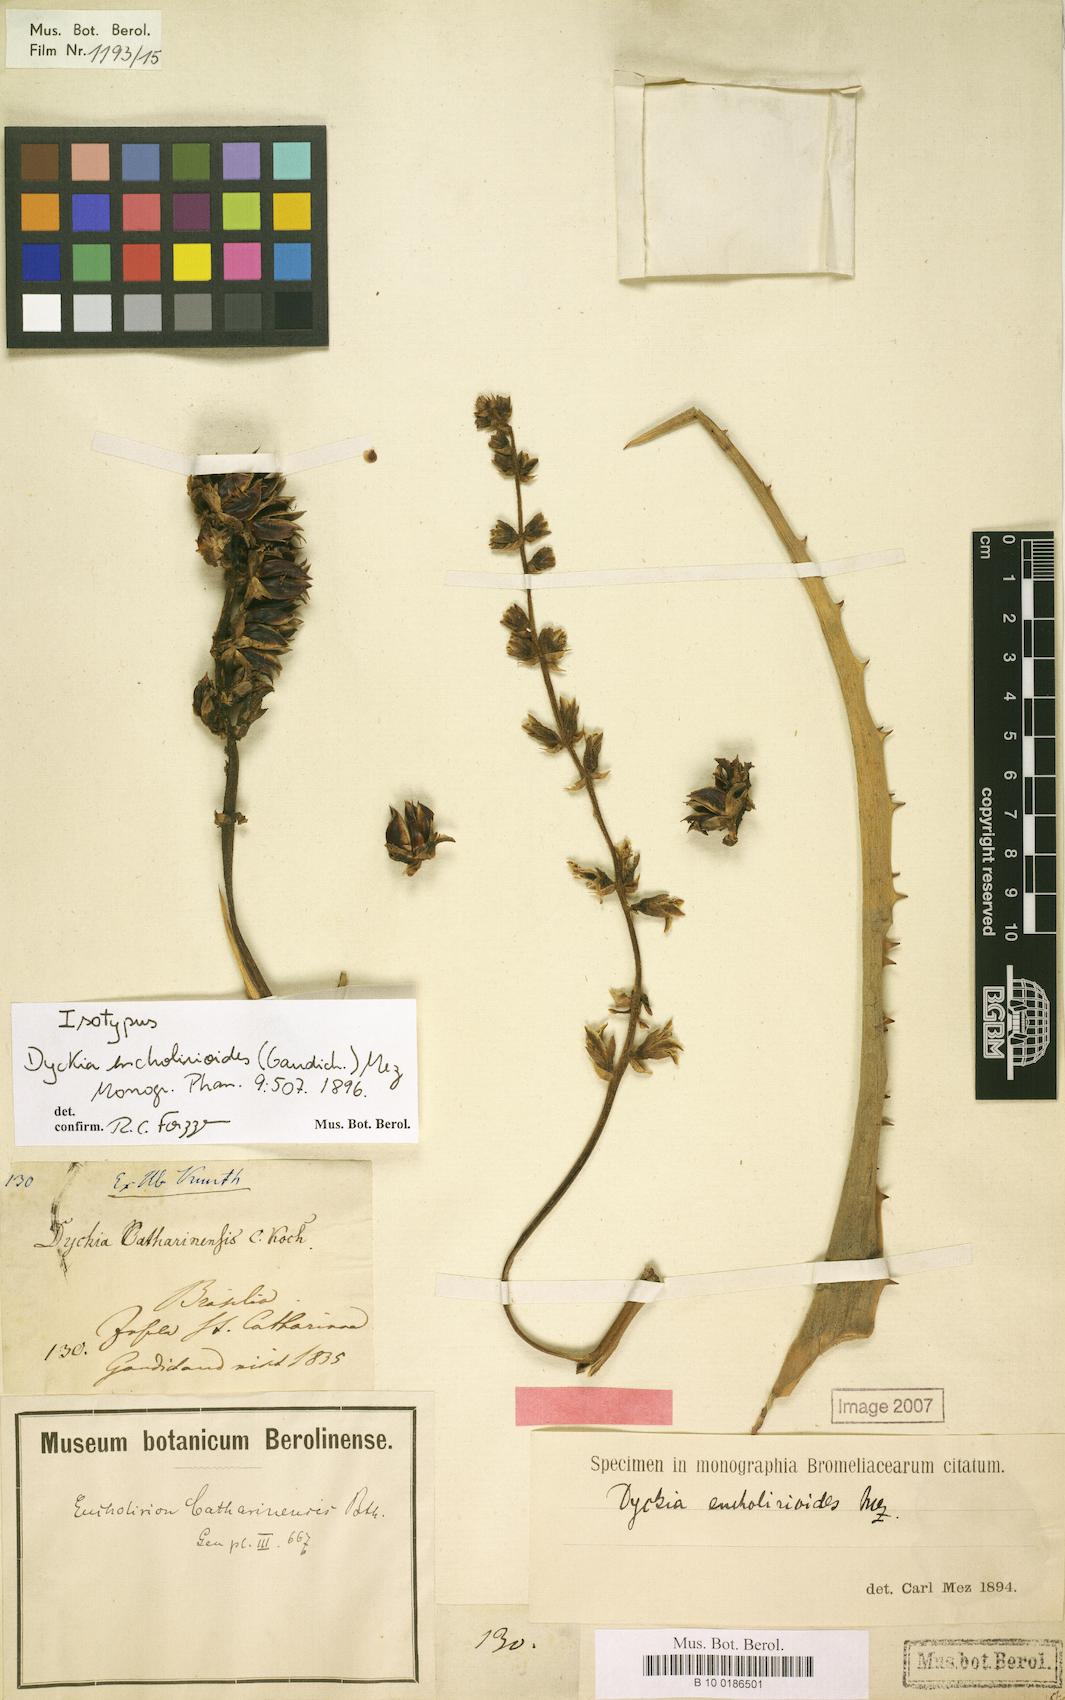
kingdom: Plantae
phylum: Tracheophyta
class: Liliopsida
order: Poales
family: Bromeliaceae
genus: Dyckia
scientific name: Dyckia encholirioides
